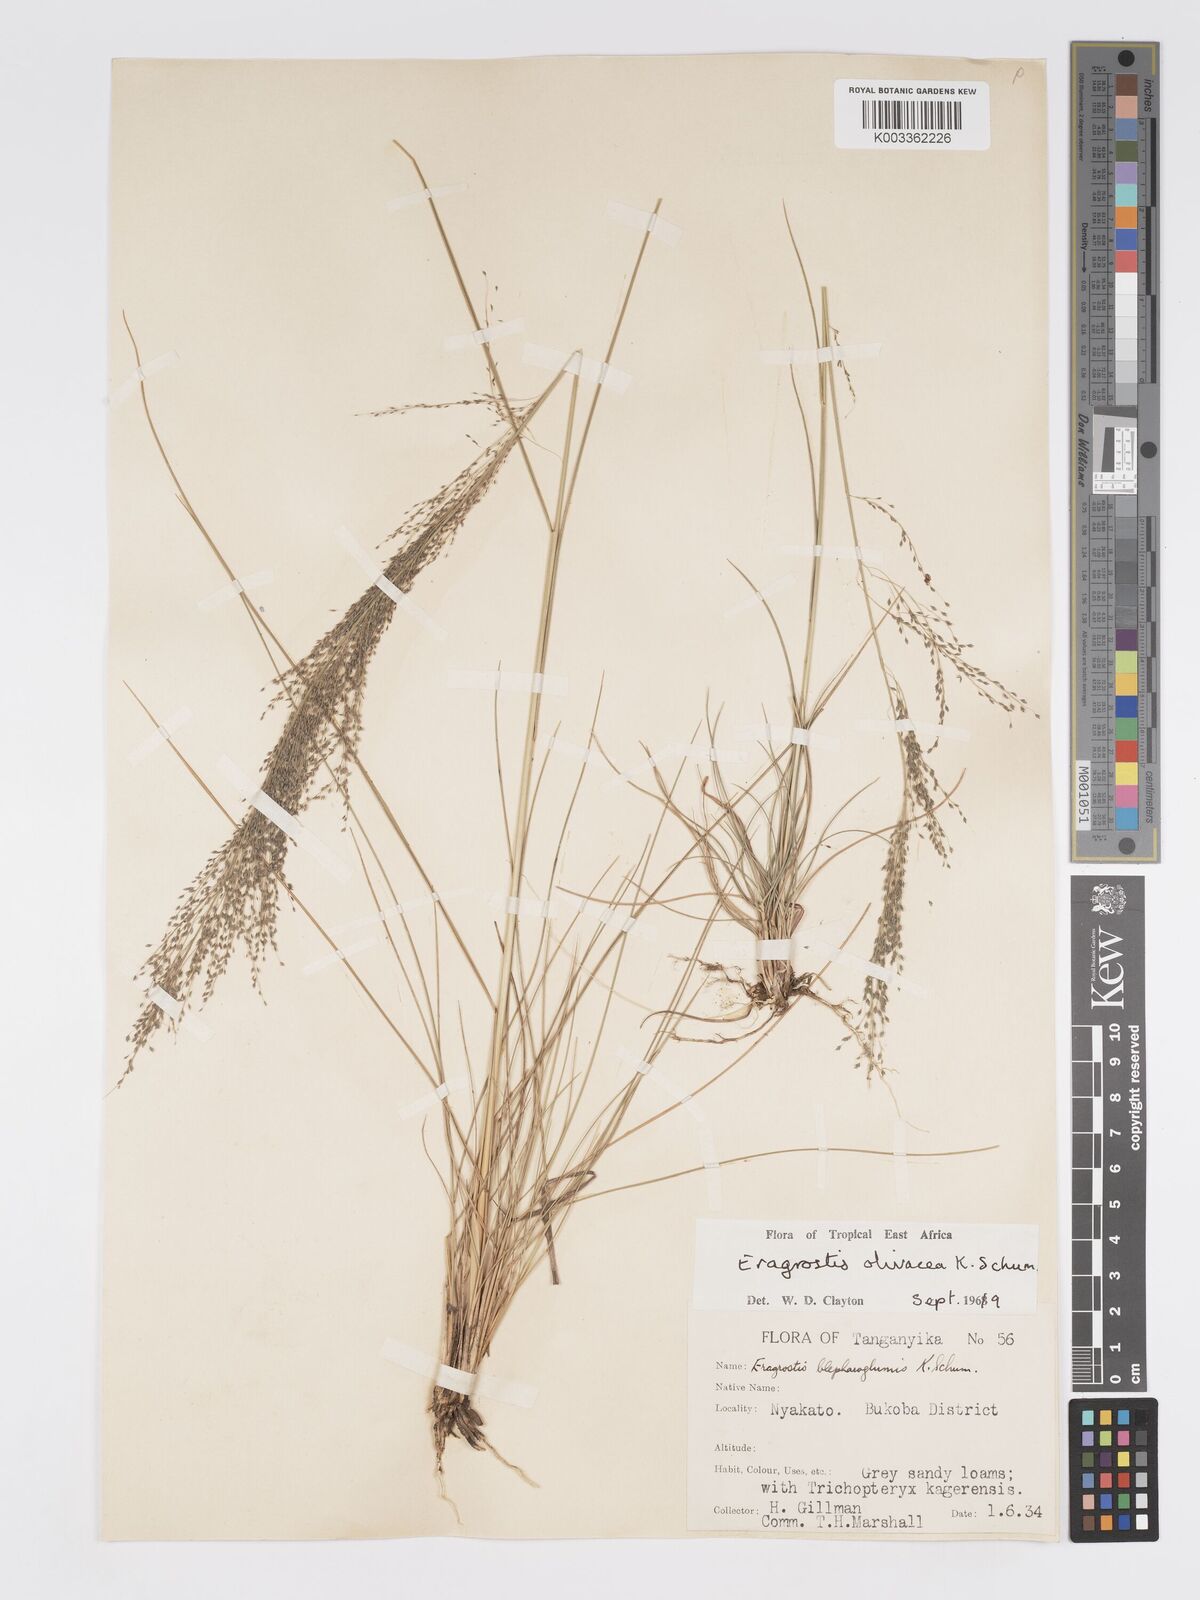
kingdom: Plantae
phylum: Tracheophyta
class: Liliopsida
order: Poales
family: Poaceae
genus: Eragrostis
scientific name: Eragrostis olivacea
